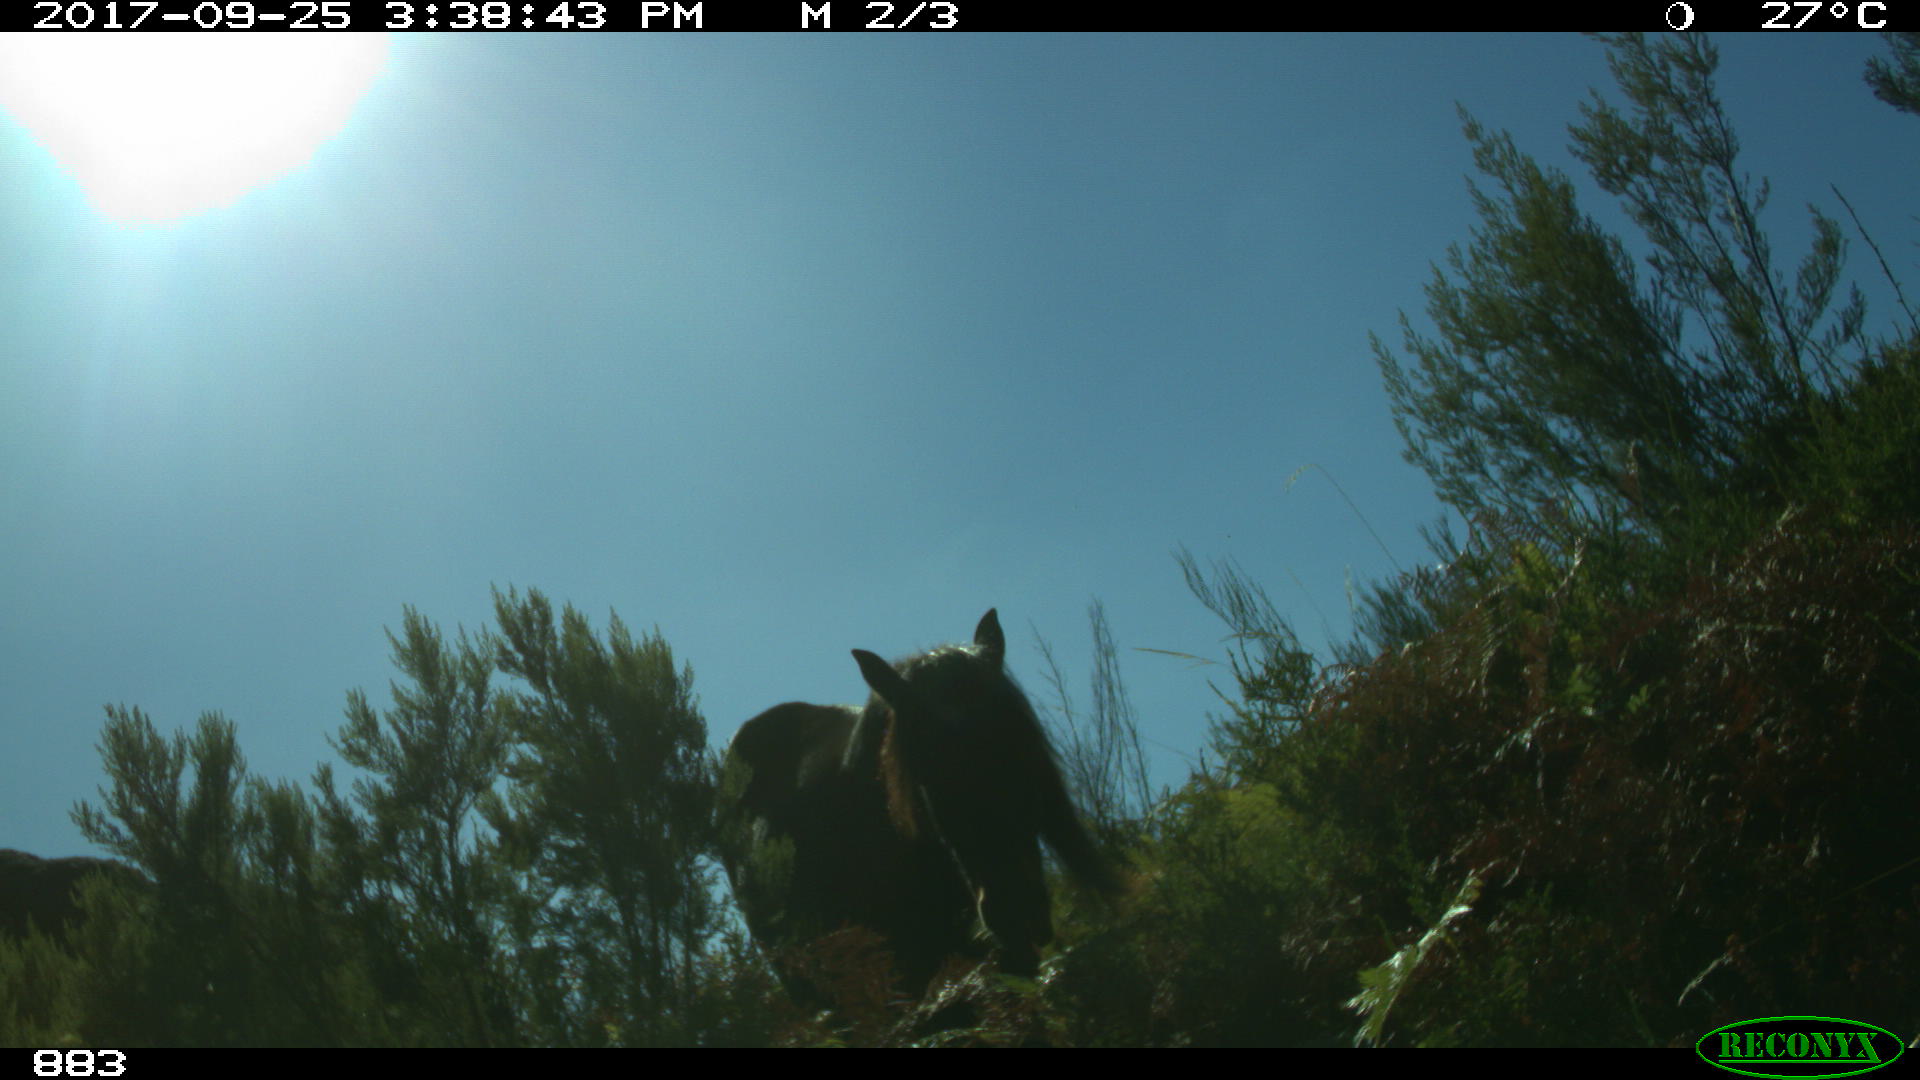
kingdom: Animalia
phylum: Chordata
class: Mammalia
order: Perissodactyla
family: Equidae
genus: Equus
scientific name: Equus caballus
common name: Horse
